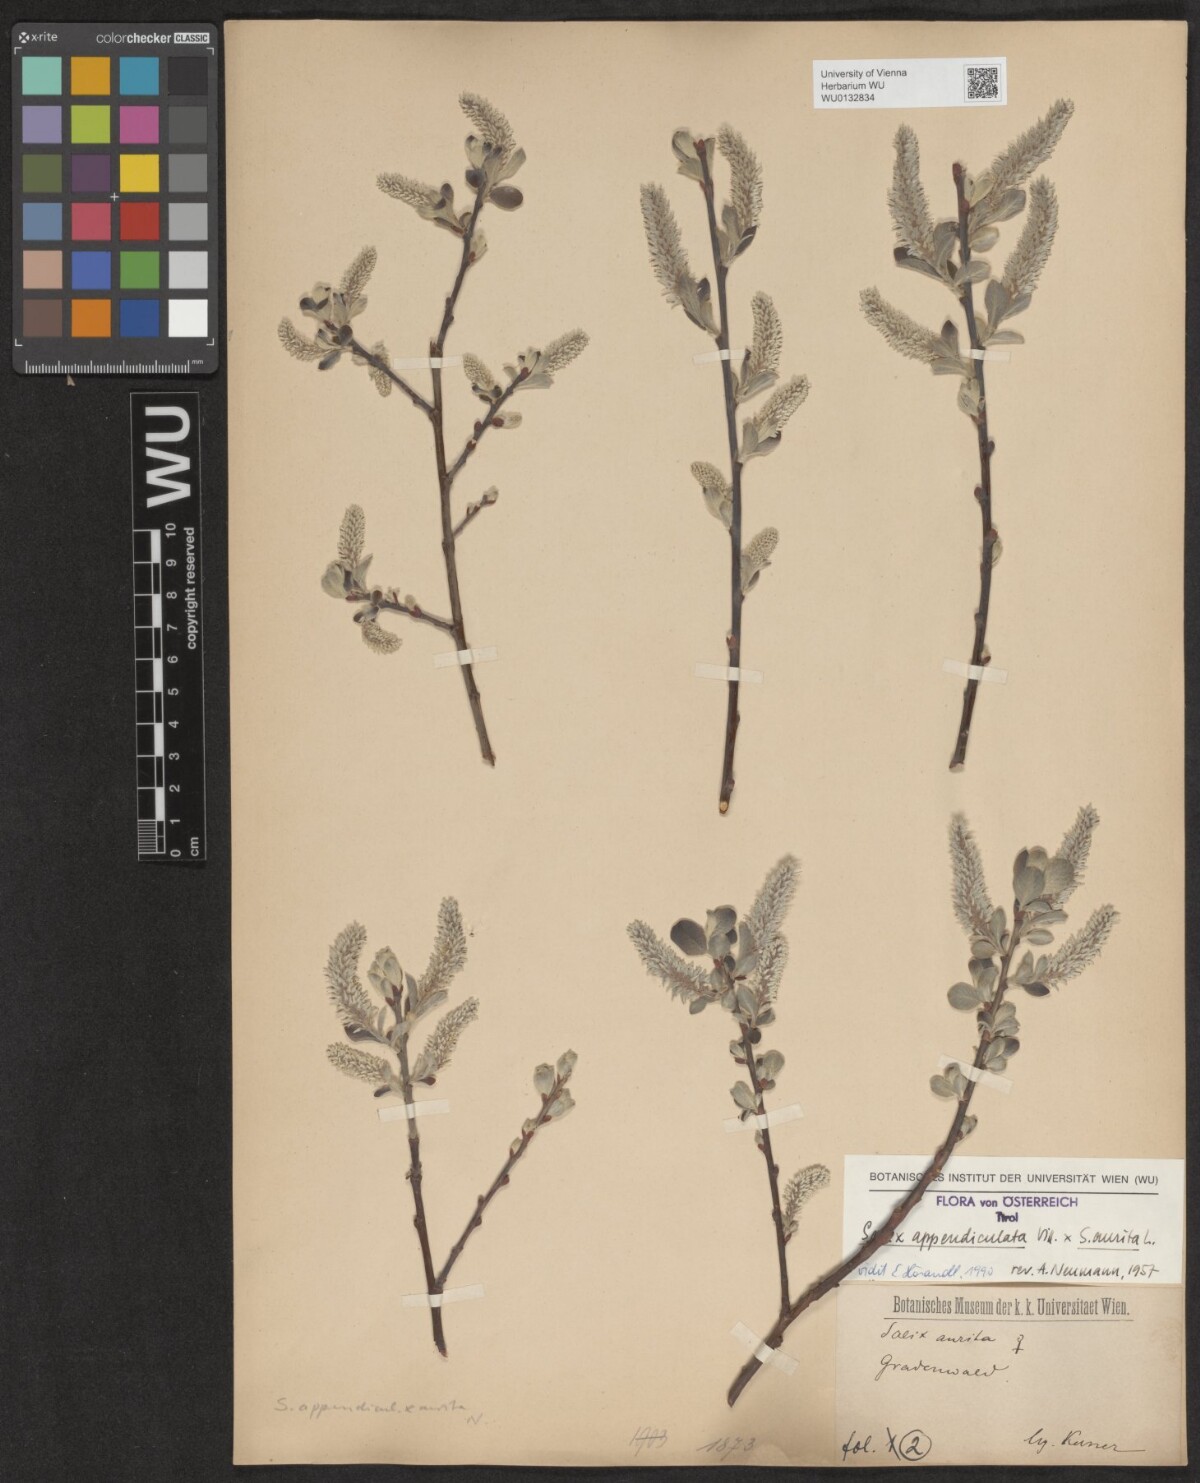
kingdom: Plantae
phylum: Tracheophyta
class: Magnoliopsida
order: Malpighiales
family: Salicaceae
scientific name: Salicaceae
